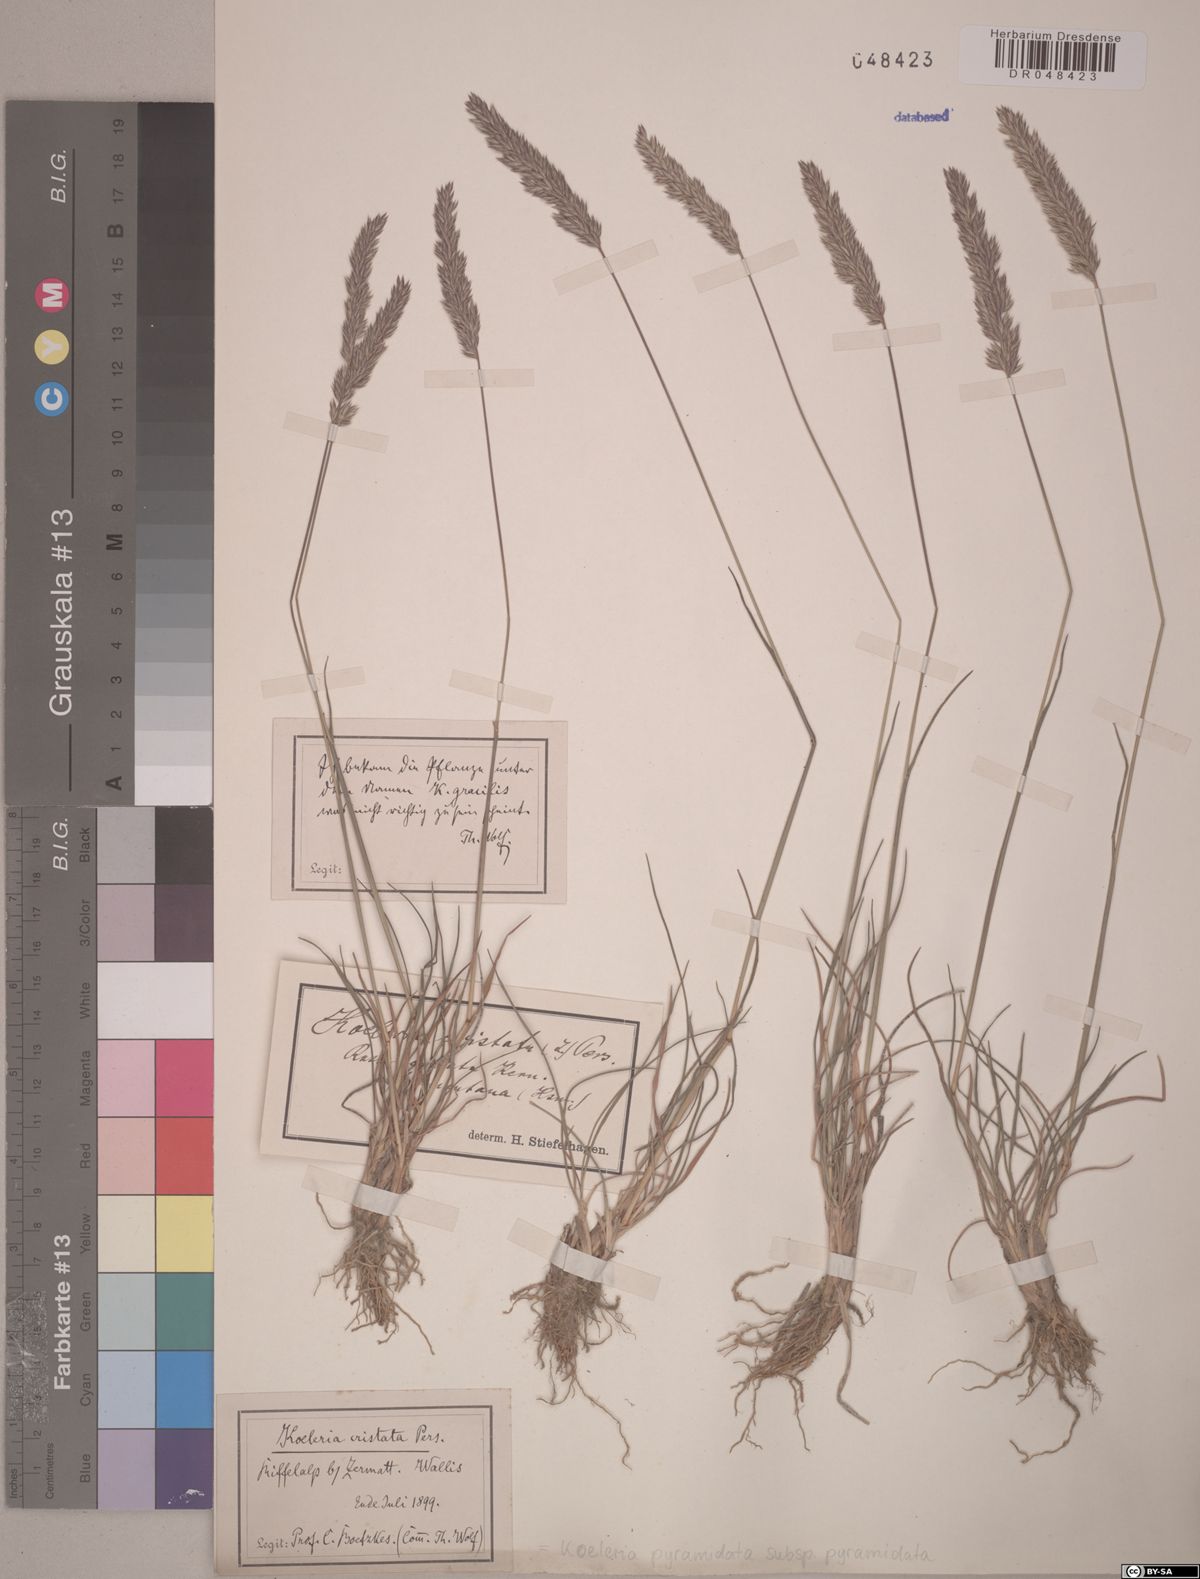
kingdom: Plantae
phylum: Tracheophyta
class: Liliopsida
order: Poales
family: Poaceae
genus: Koeleria
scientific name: Koeleria pyramidata
